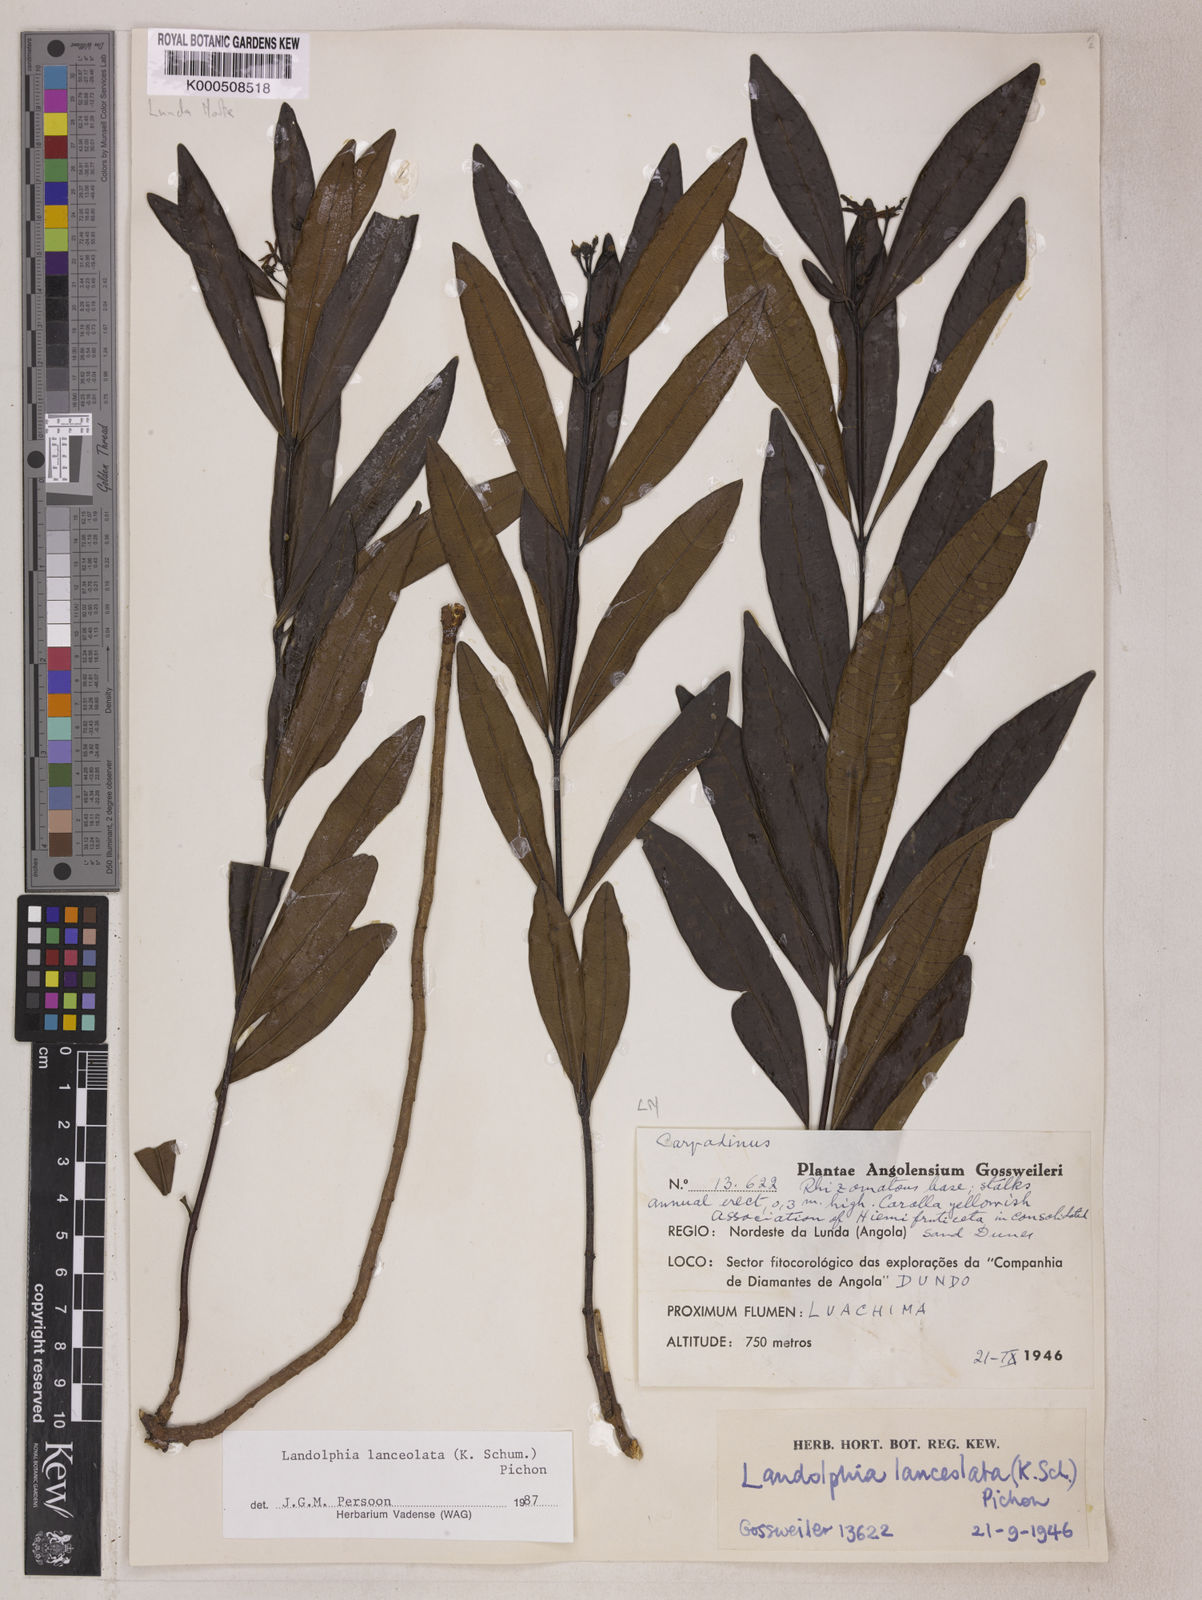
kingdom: Plantae
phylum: Tracheophyta
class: Magnoliopsida
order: Gentianales
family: Apocynaceae
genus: Landolphia
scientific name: Landolphia lanceolata
